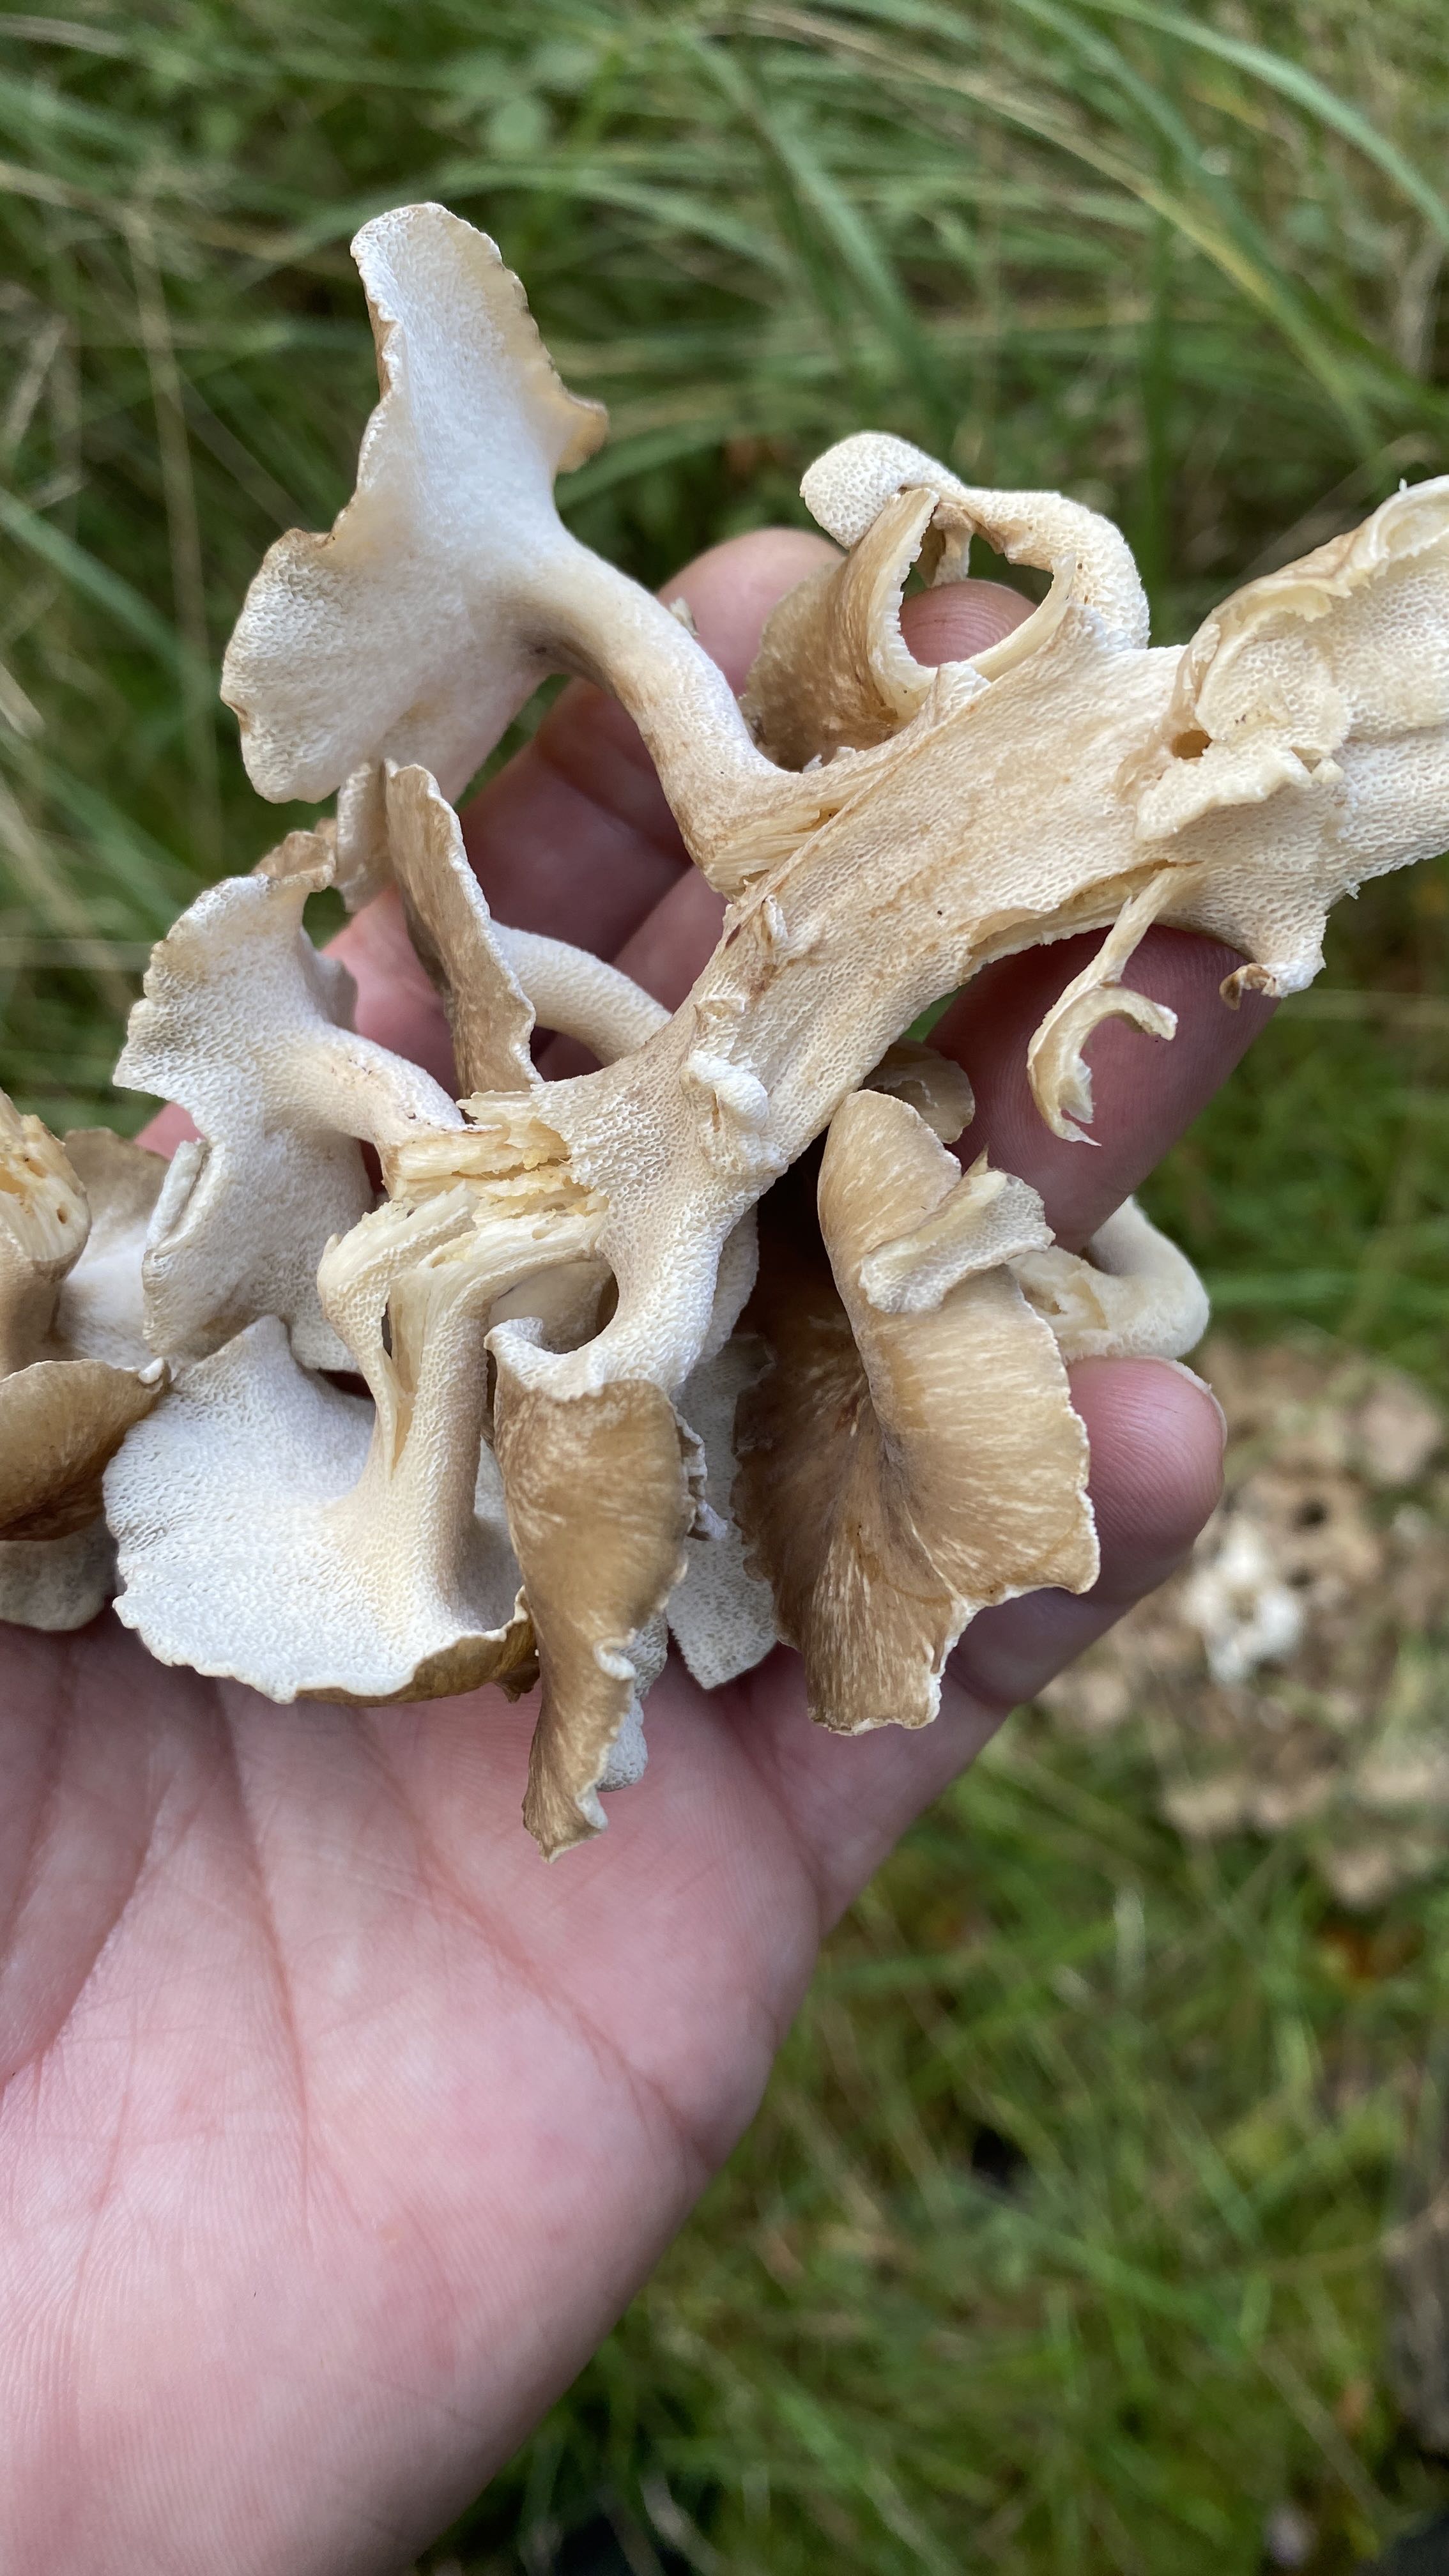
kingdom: Fungi
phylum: Basidiomycota
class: Agaricomycetes
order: Polyporales
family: Polyporaceae
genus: Polyporus
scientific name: Polyporus umbellatus
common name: skærmformet stilkporesvamp
